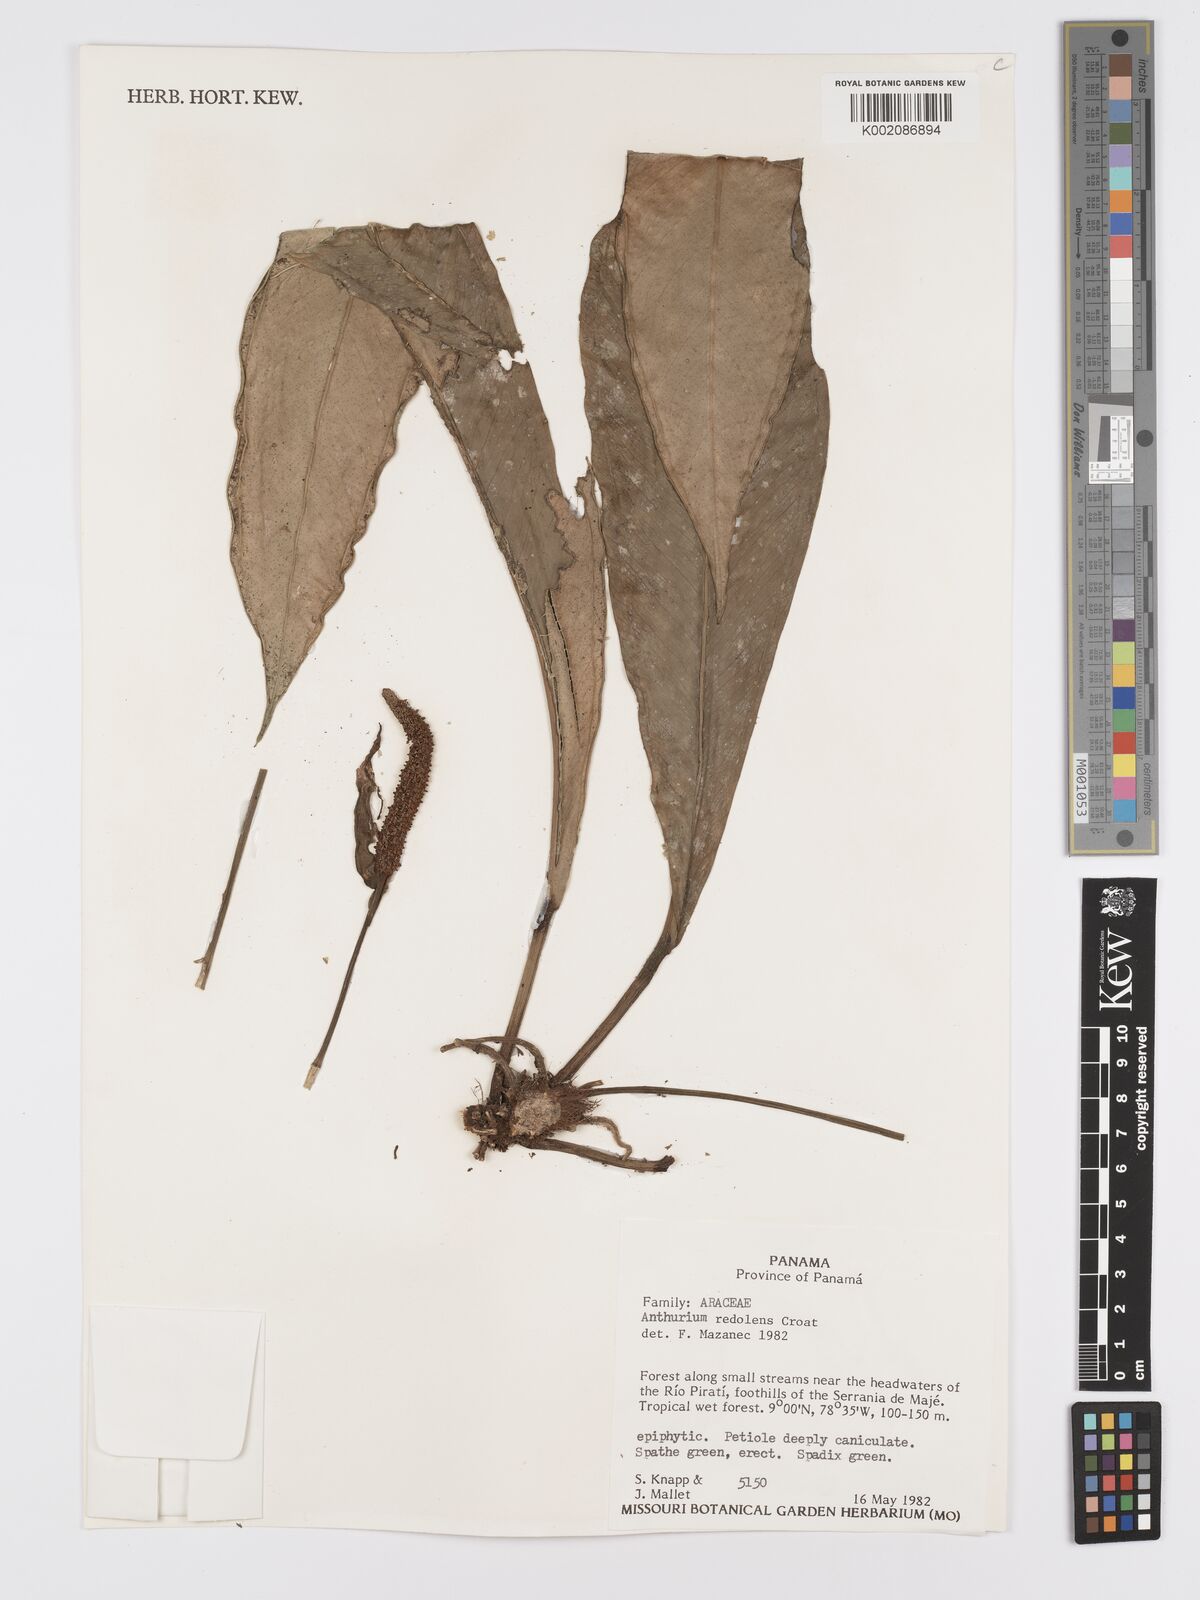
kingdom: Plantae
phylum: Tracheophyta
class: Liliopsida
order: Alismatales
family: Araceae
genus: Anthurium
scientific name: Anthurium redolens
